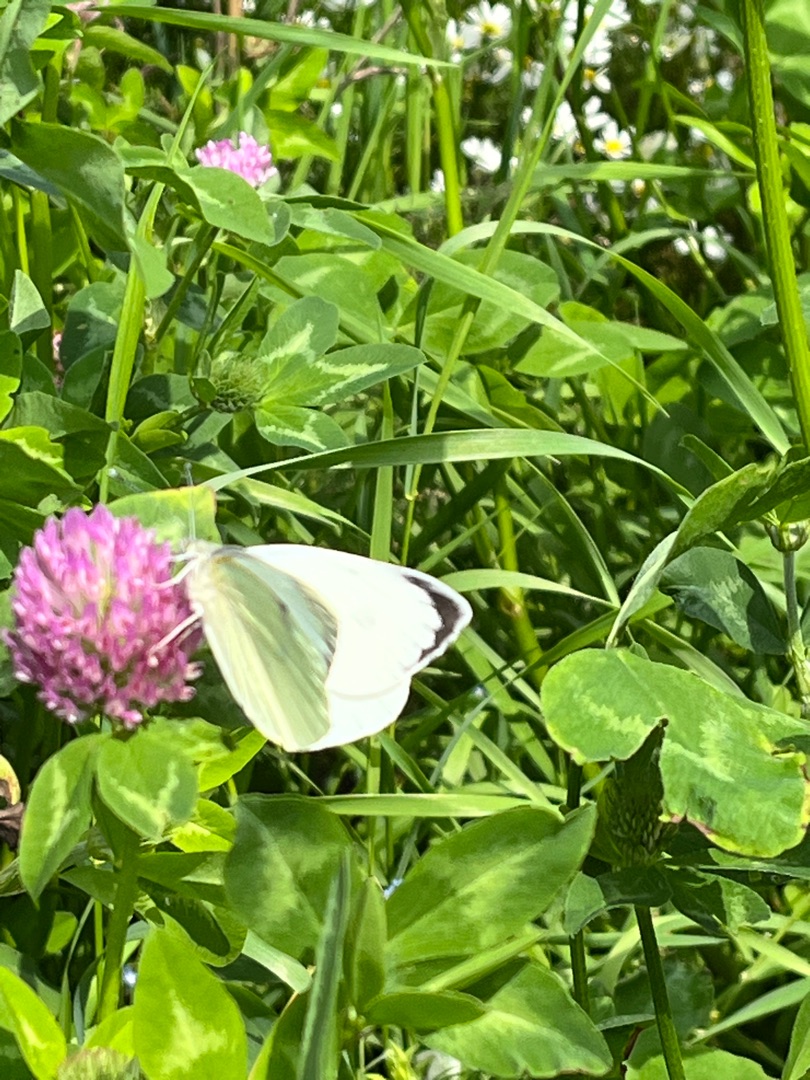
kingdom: Animalia
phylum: Arthropoda
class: Insecta
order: Lepidoptera
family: Pieridae
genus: Pieris
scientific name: Pieris brassicae
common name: Stor kålsommerfugl
